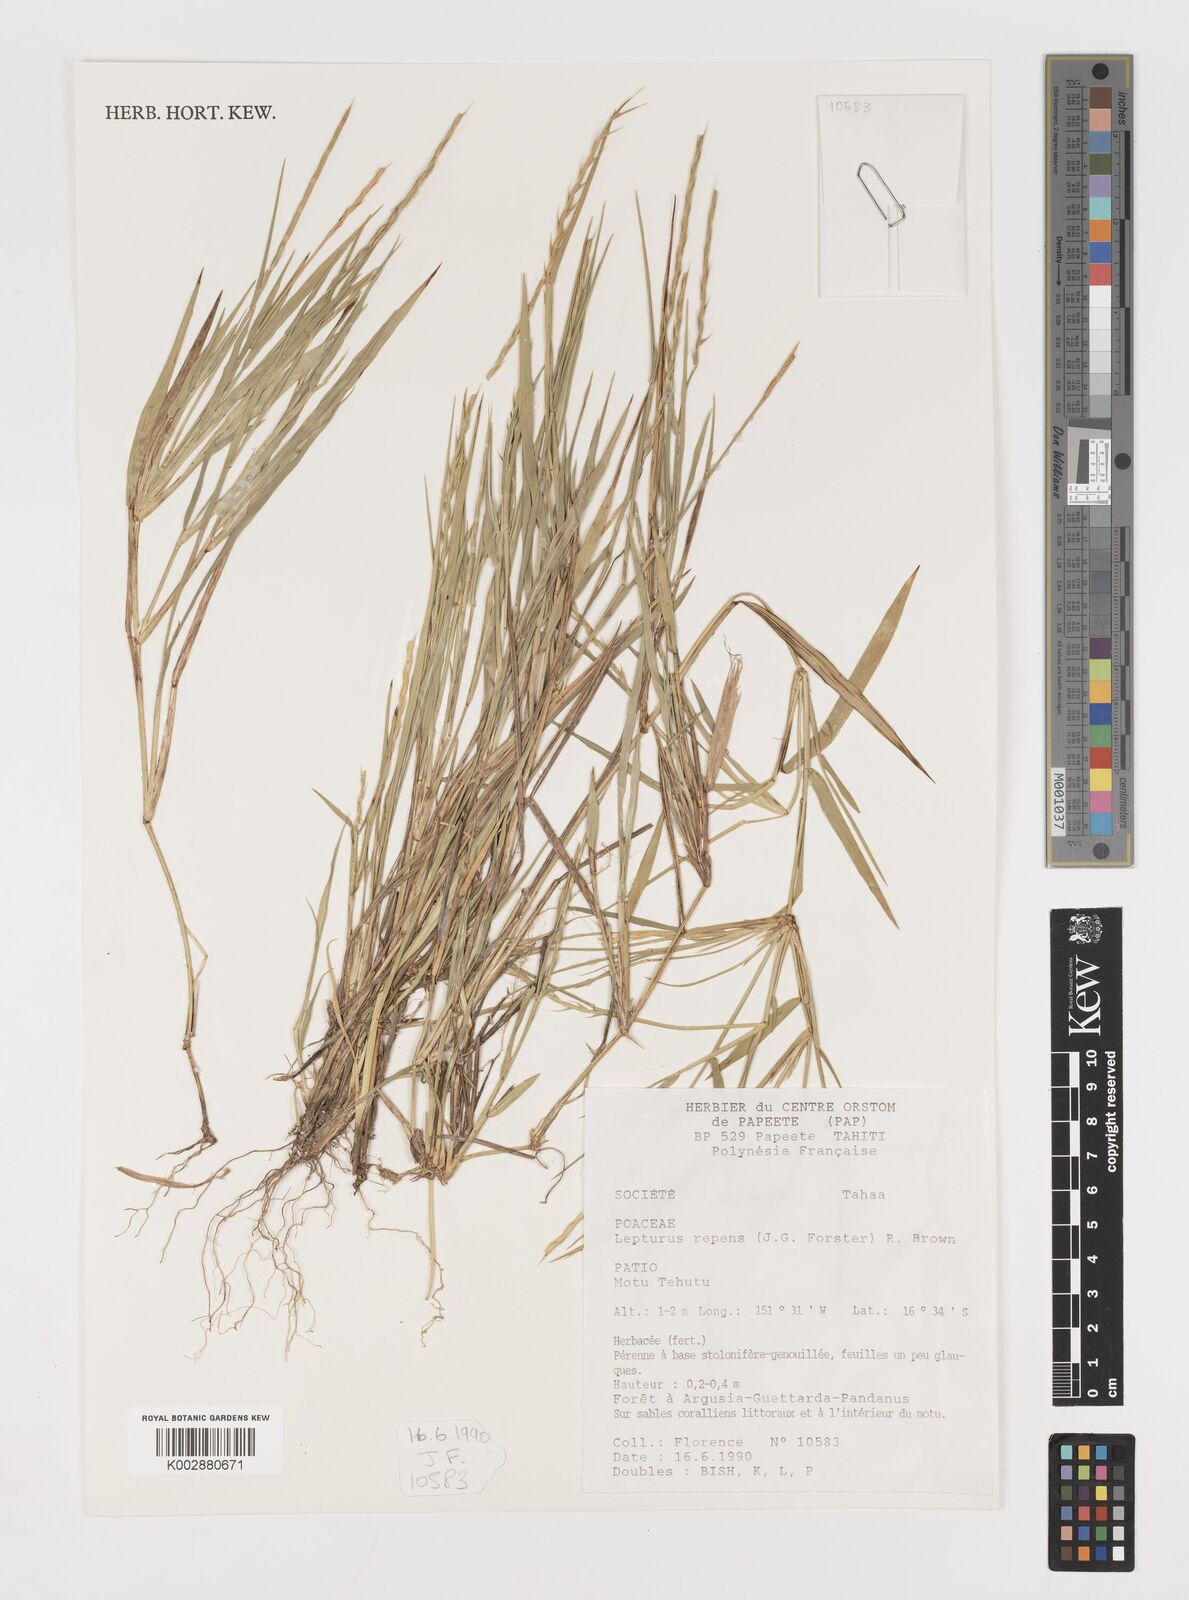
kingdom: Plantae
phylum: Tracheophyta
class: Liliopsida
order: Poales
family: Poaceae
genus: Lepturus
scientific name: Lepturus repens
